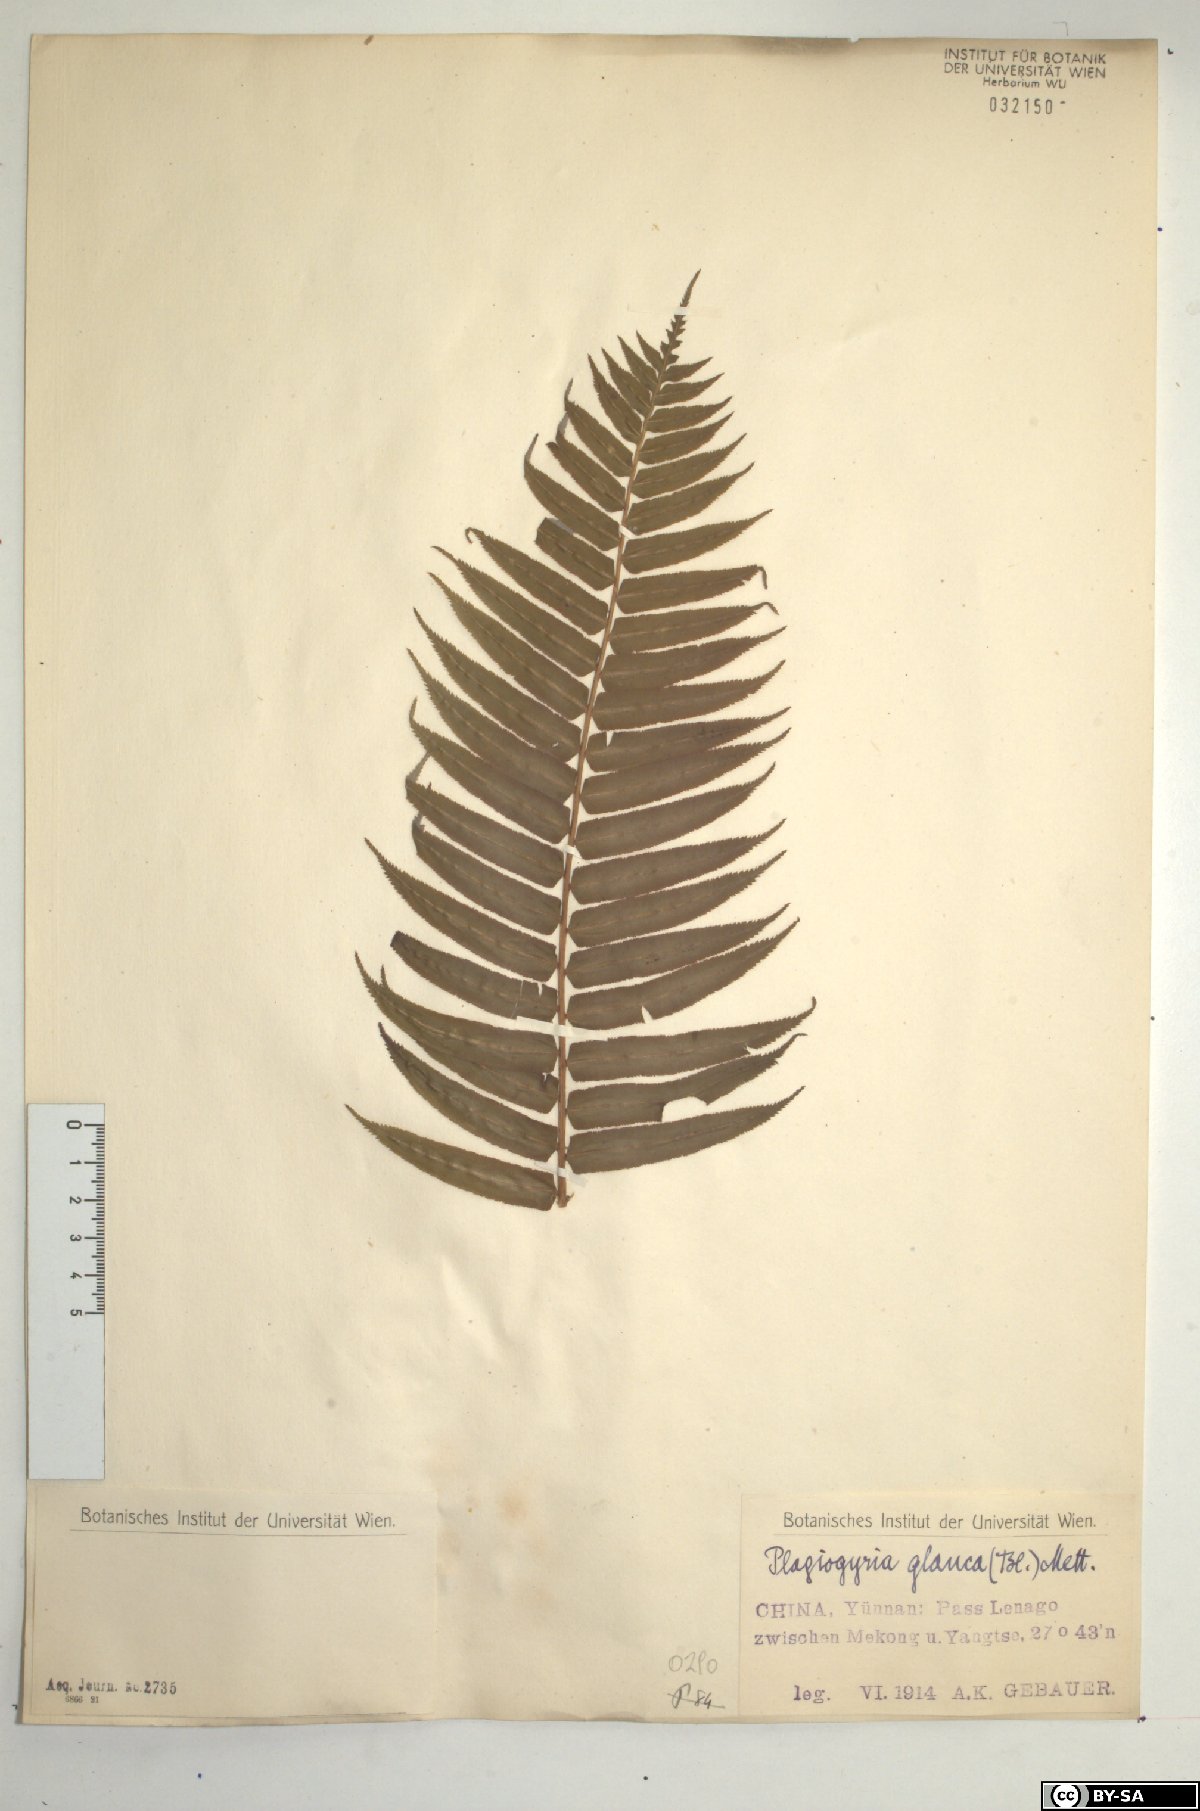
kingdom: Plantae
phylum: Tracheophyta
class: Polypodiopsida
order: Cyatheales
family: Plagiogyriaceae
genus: Plagiogyria
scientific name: Plagiogyria glauca
